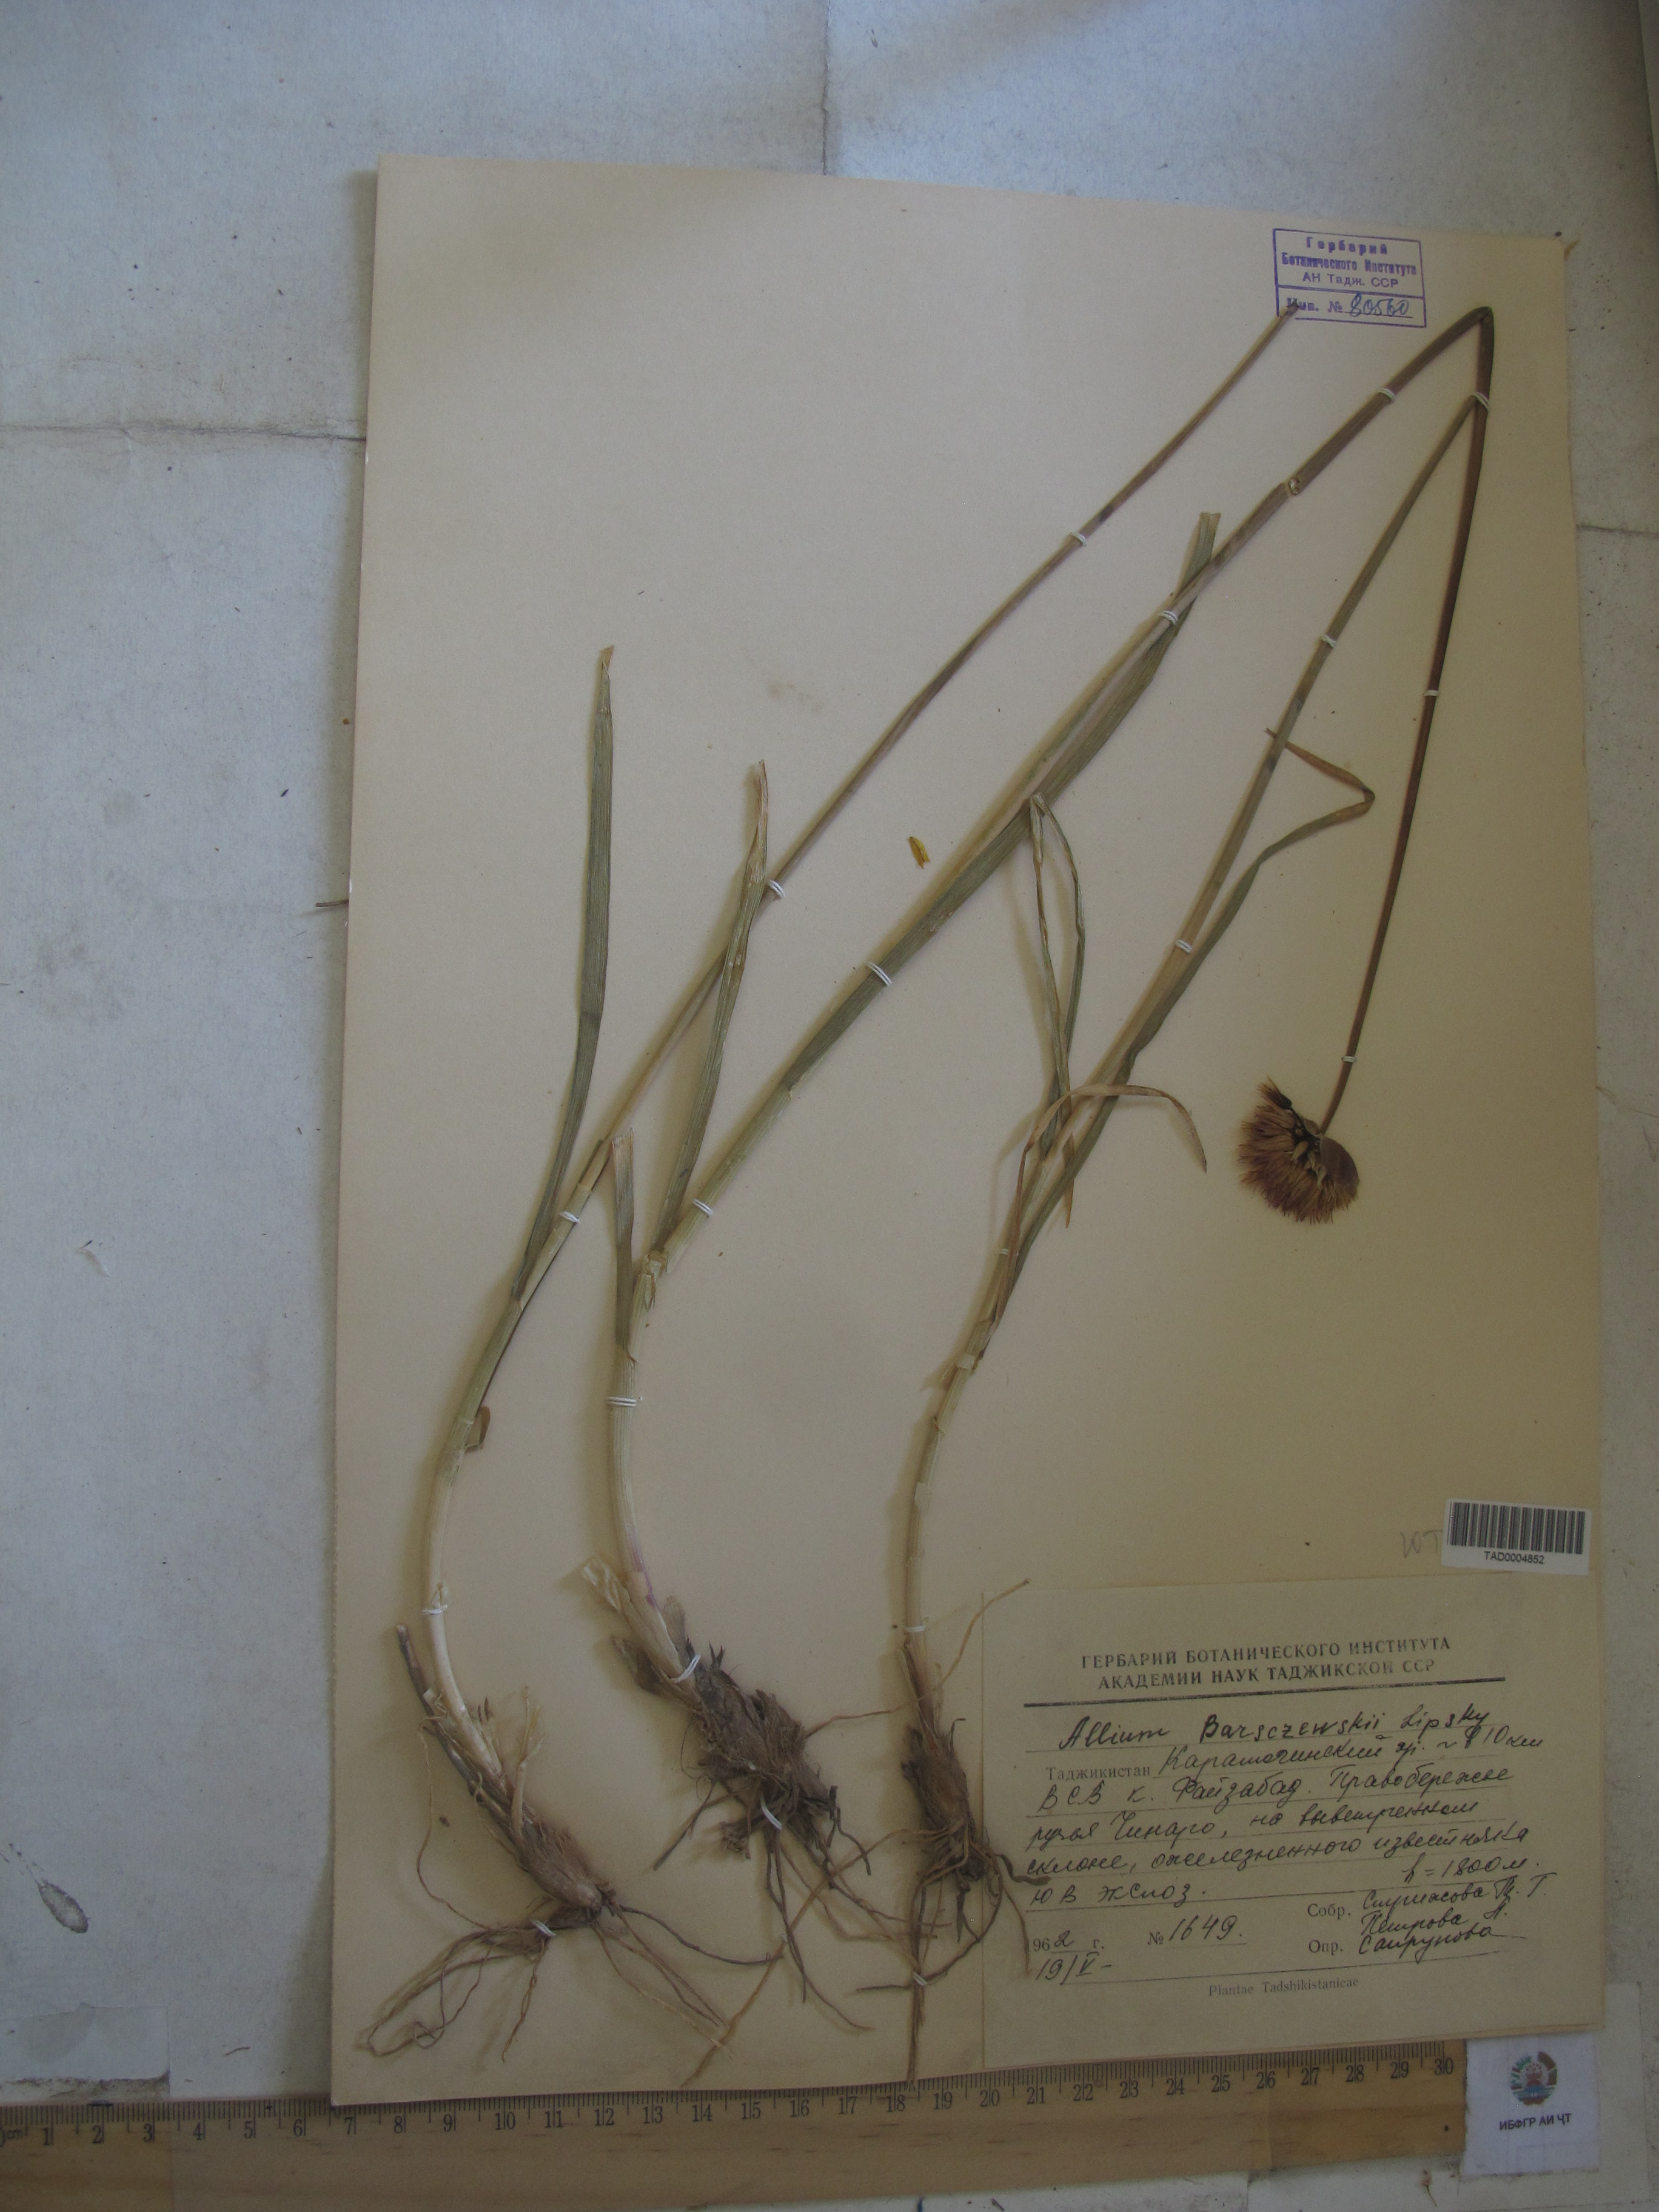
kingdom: Plantae
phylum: Tracheophyta
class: Liliopsida
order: Asparagales
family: Amaryllidaceae
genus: Allium
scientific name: Allium barsczewskii
